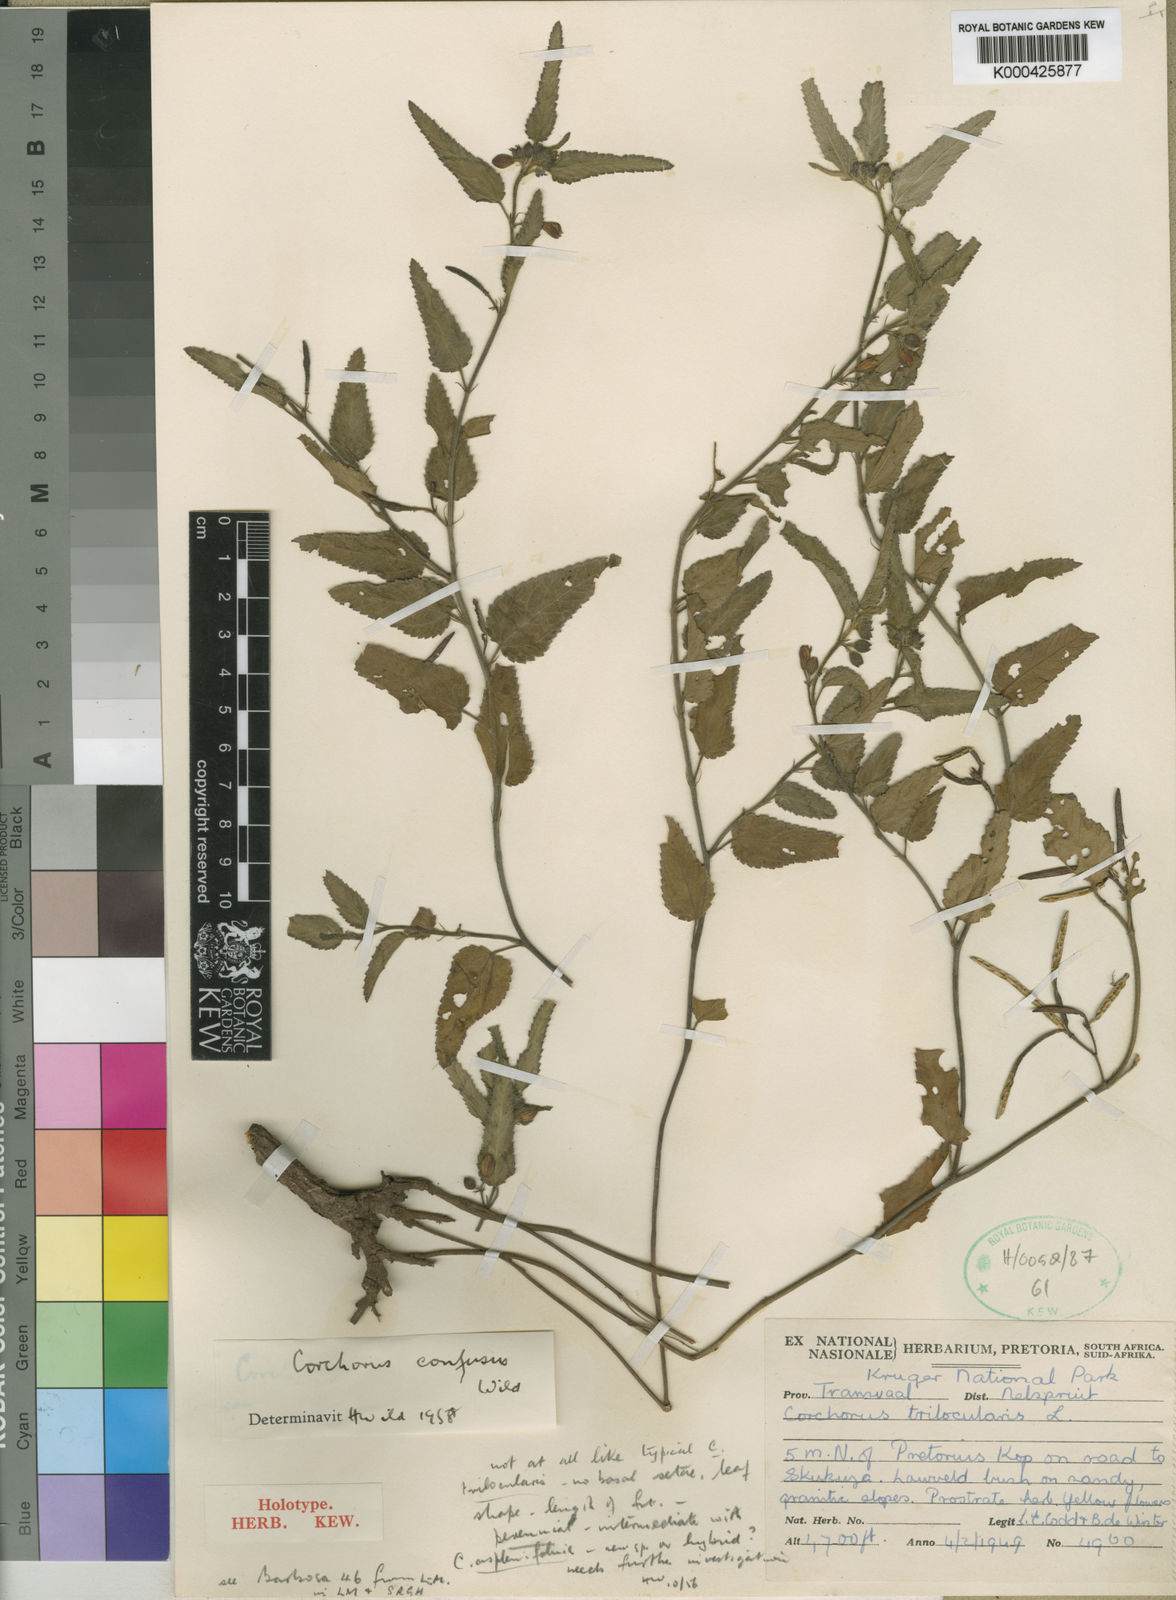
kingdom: Plantae
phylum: Tracheophyta
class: Magnoliopsida
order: Malvales
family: Malvaceae
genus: Corchorus
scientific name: Corchorus confusus
